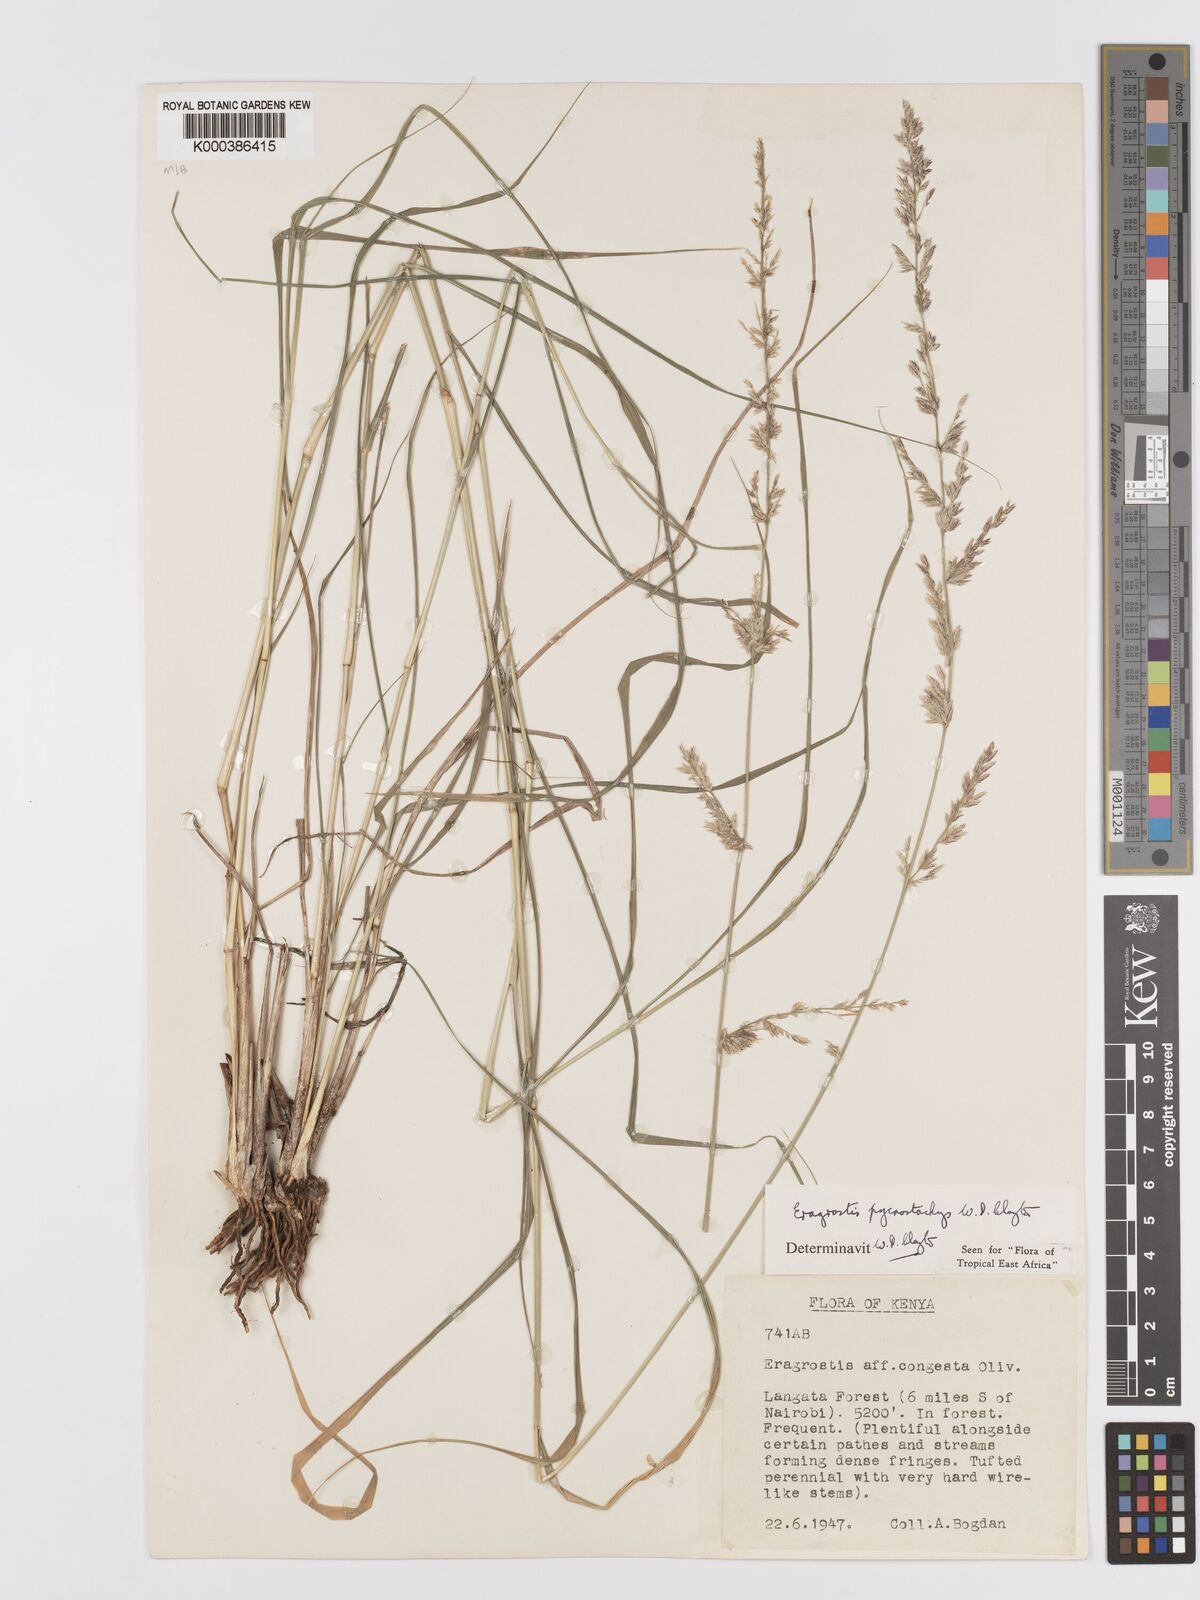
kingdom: Plantae
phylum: Tracheophyta
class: Liliopsida
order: Poales
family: Poaceae
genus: Eragrostis
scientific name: Eragrostis pycnostachys
